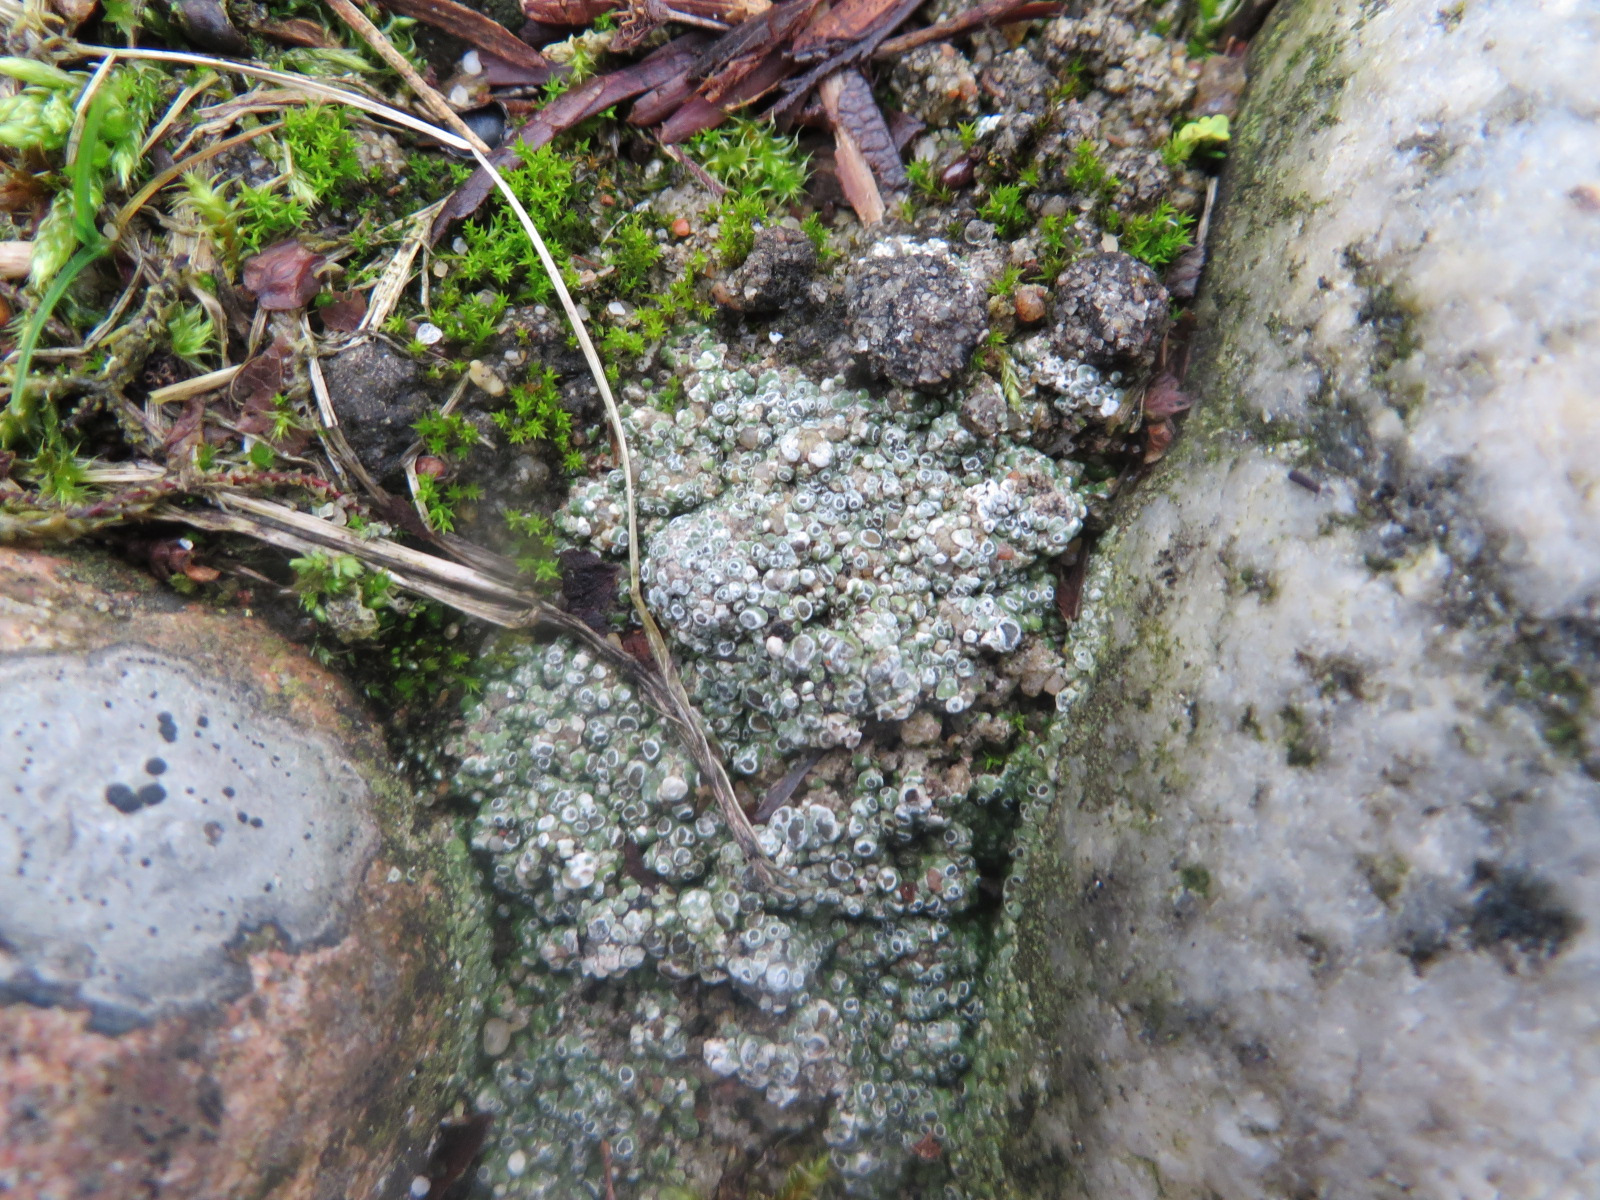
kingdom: Fungi
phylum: Ascomycota
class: Lecanoromycetes
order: Pertusariales
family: Megasporaceae
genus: Circinaria
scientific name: Circinaria contorta
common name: indviklet hulskivelav
